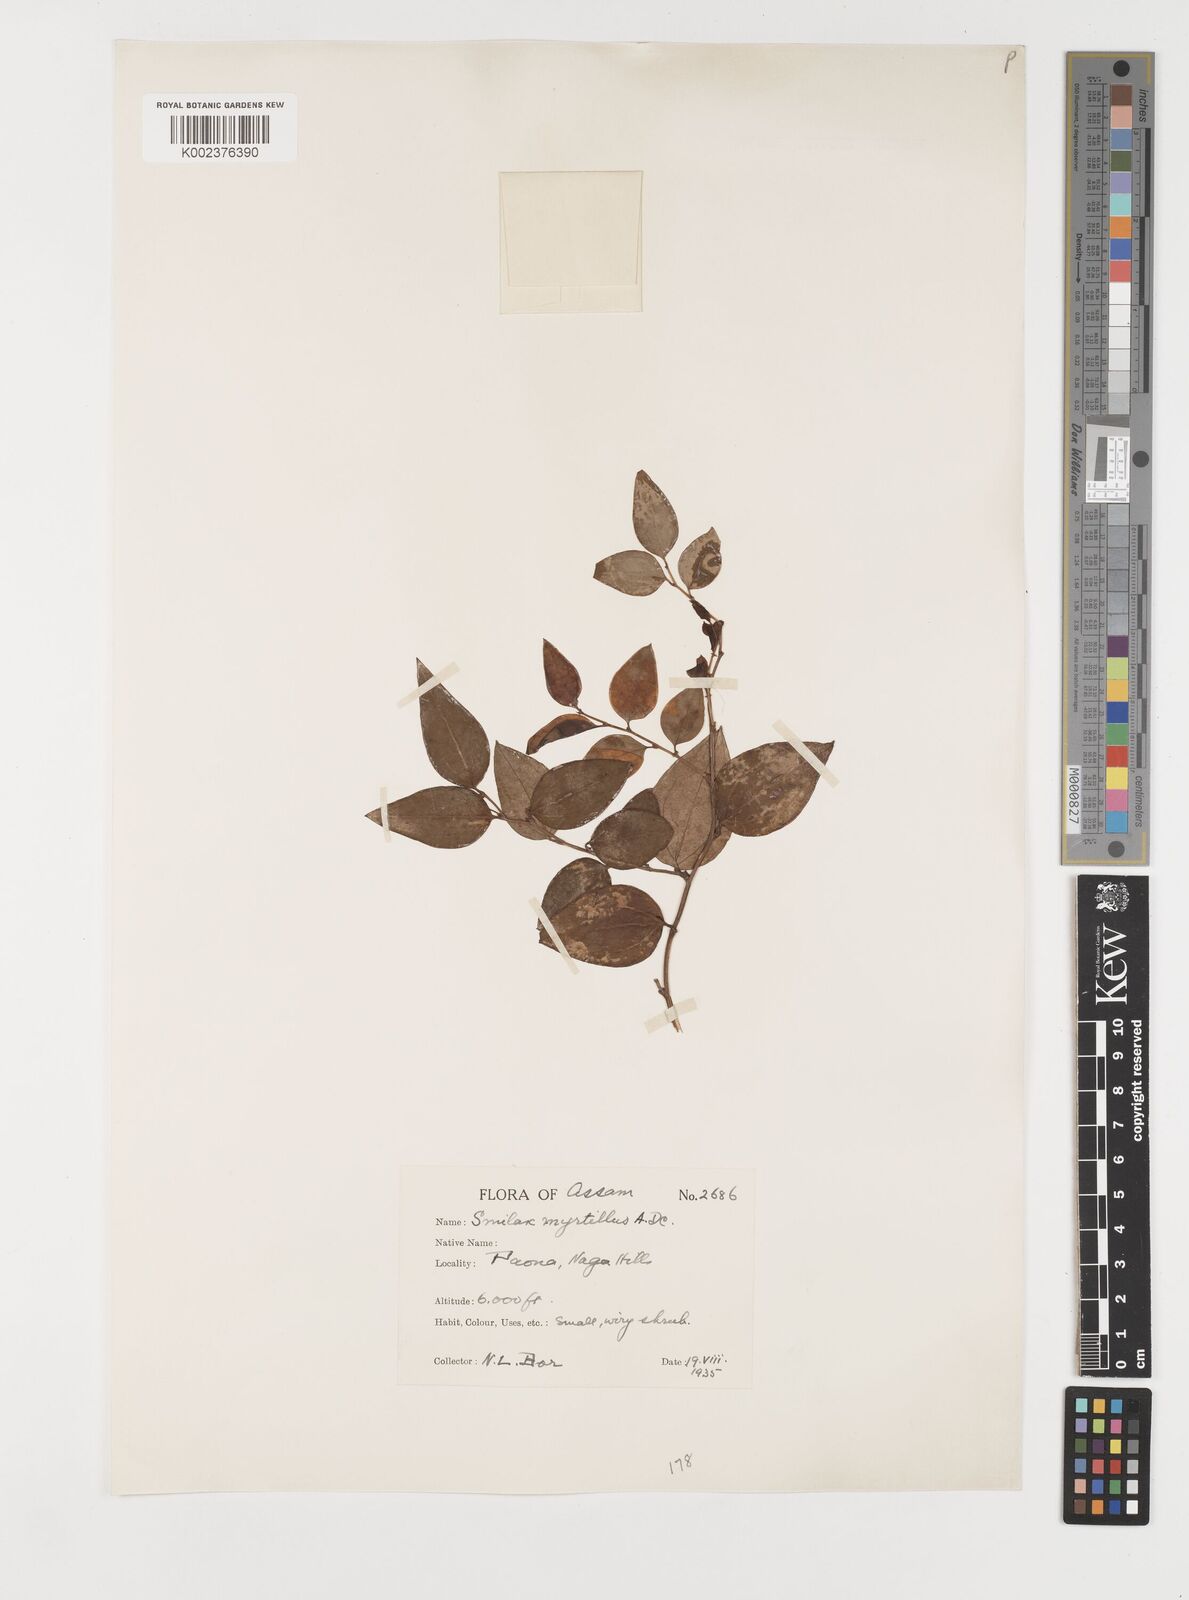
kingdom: Plantae
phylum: Tracheophyta
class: Liliopsida
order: Liliales
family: Smilacaceae
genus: Smilax
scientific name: Smilax myrtillus
